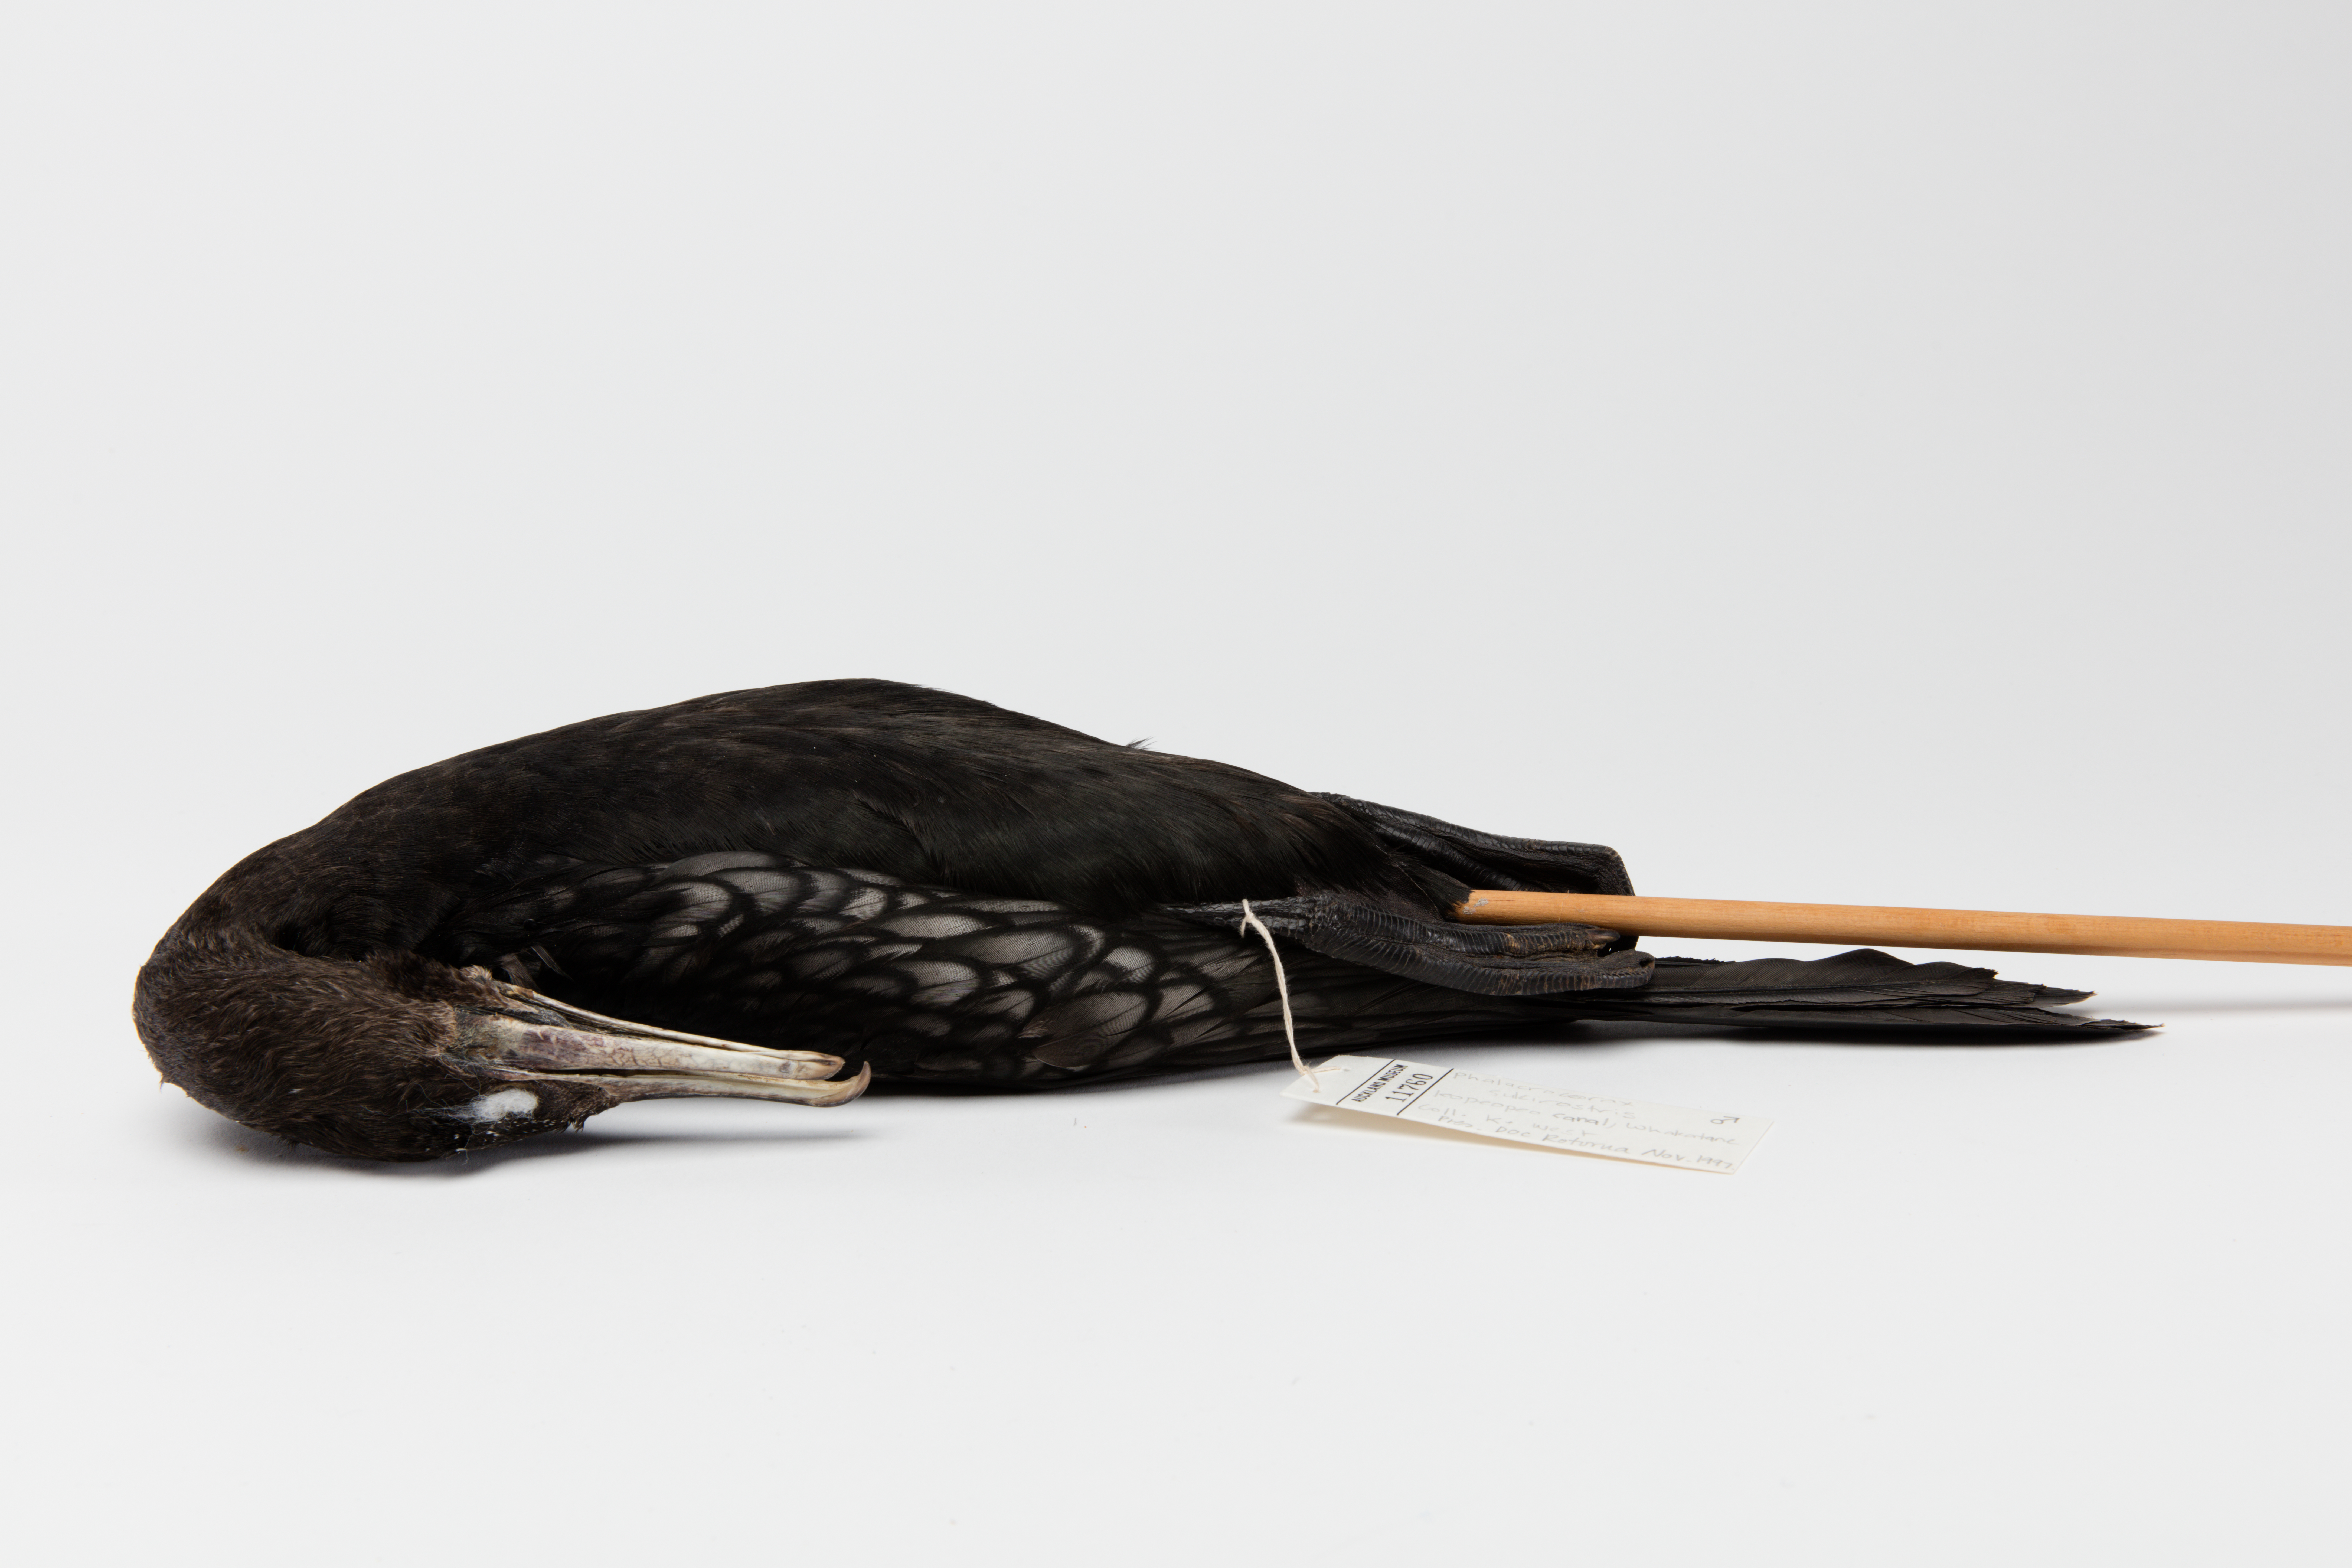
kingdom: Animalia
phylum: Chordata
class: Aves
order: Suliformes
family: Phalacrocoracidae
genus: Phalacrocorax
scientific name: Phalacrocorax sulcirostris
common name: Little black cormorant
